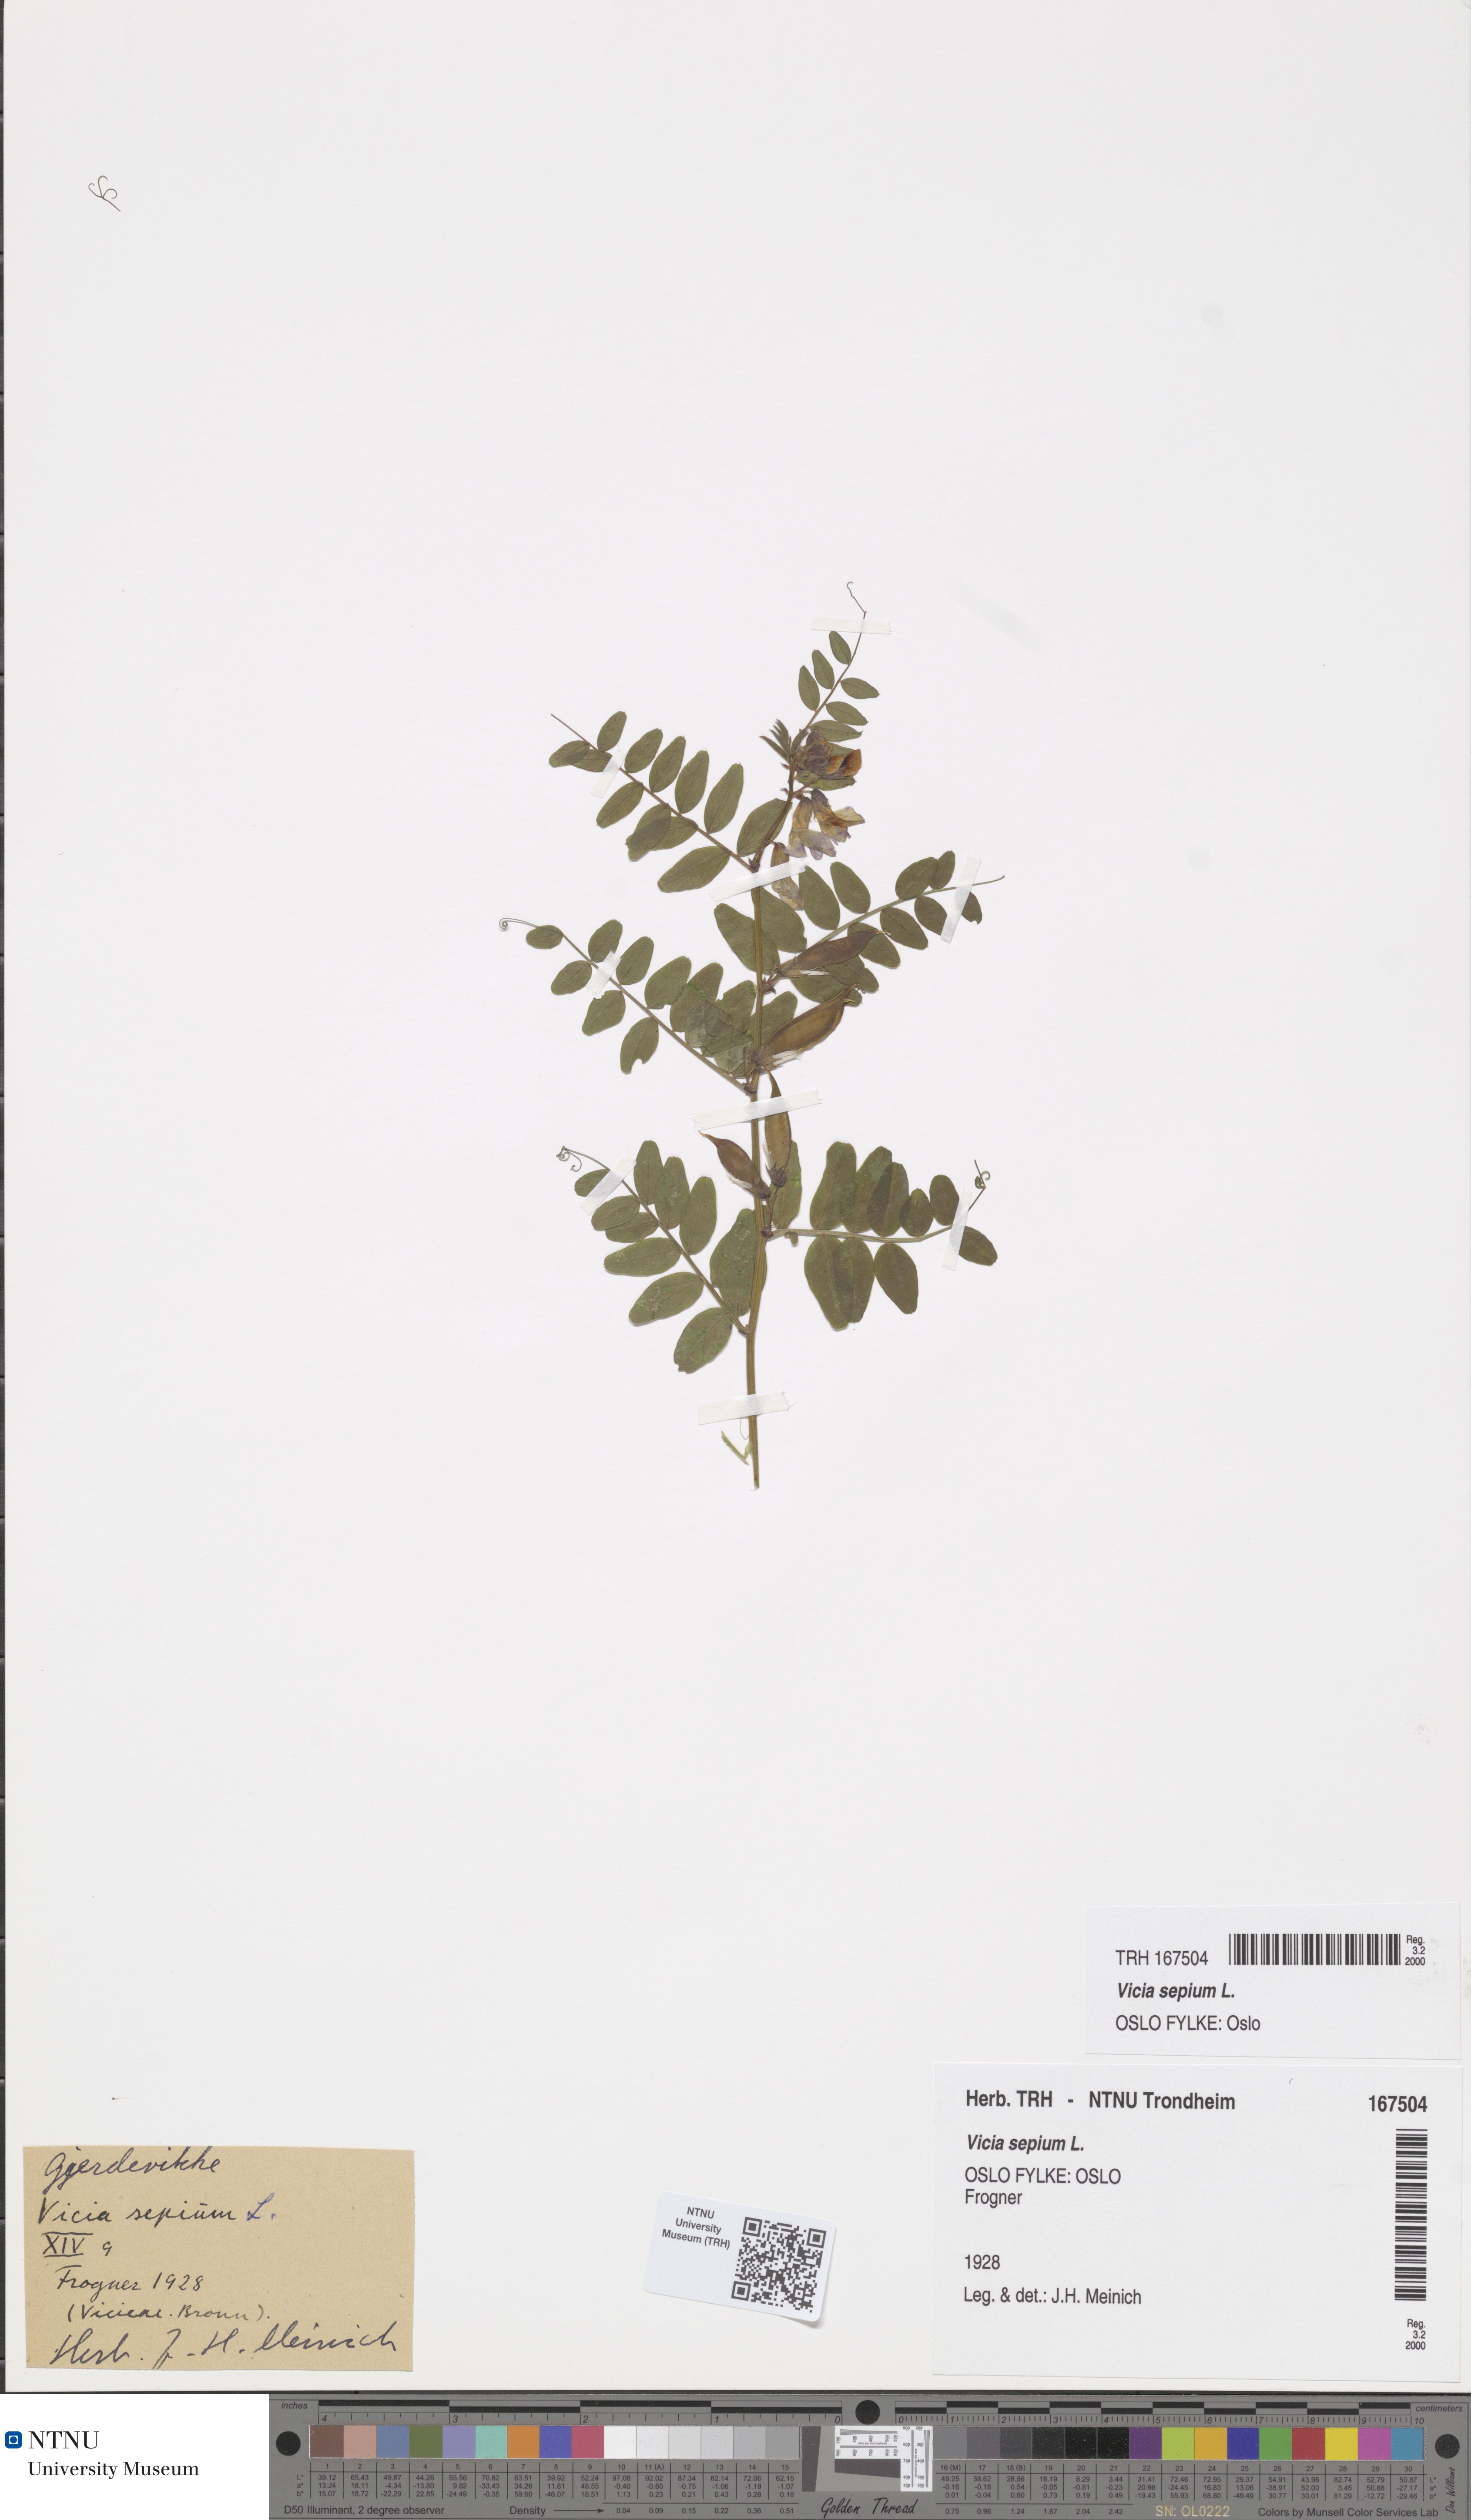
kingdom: Plantae
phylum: Tracheophyta
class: Magnoliopsida
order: Fabales
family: Fabaceae
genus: Vicia
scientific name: Vicia sepium
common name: Bush vetch
